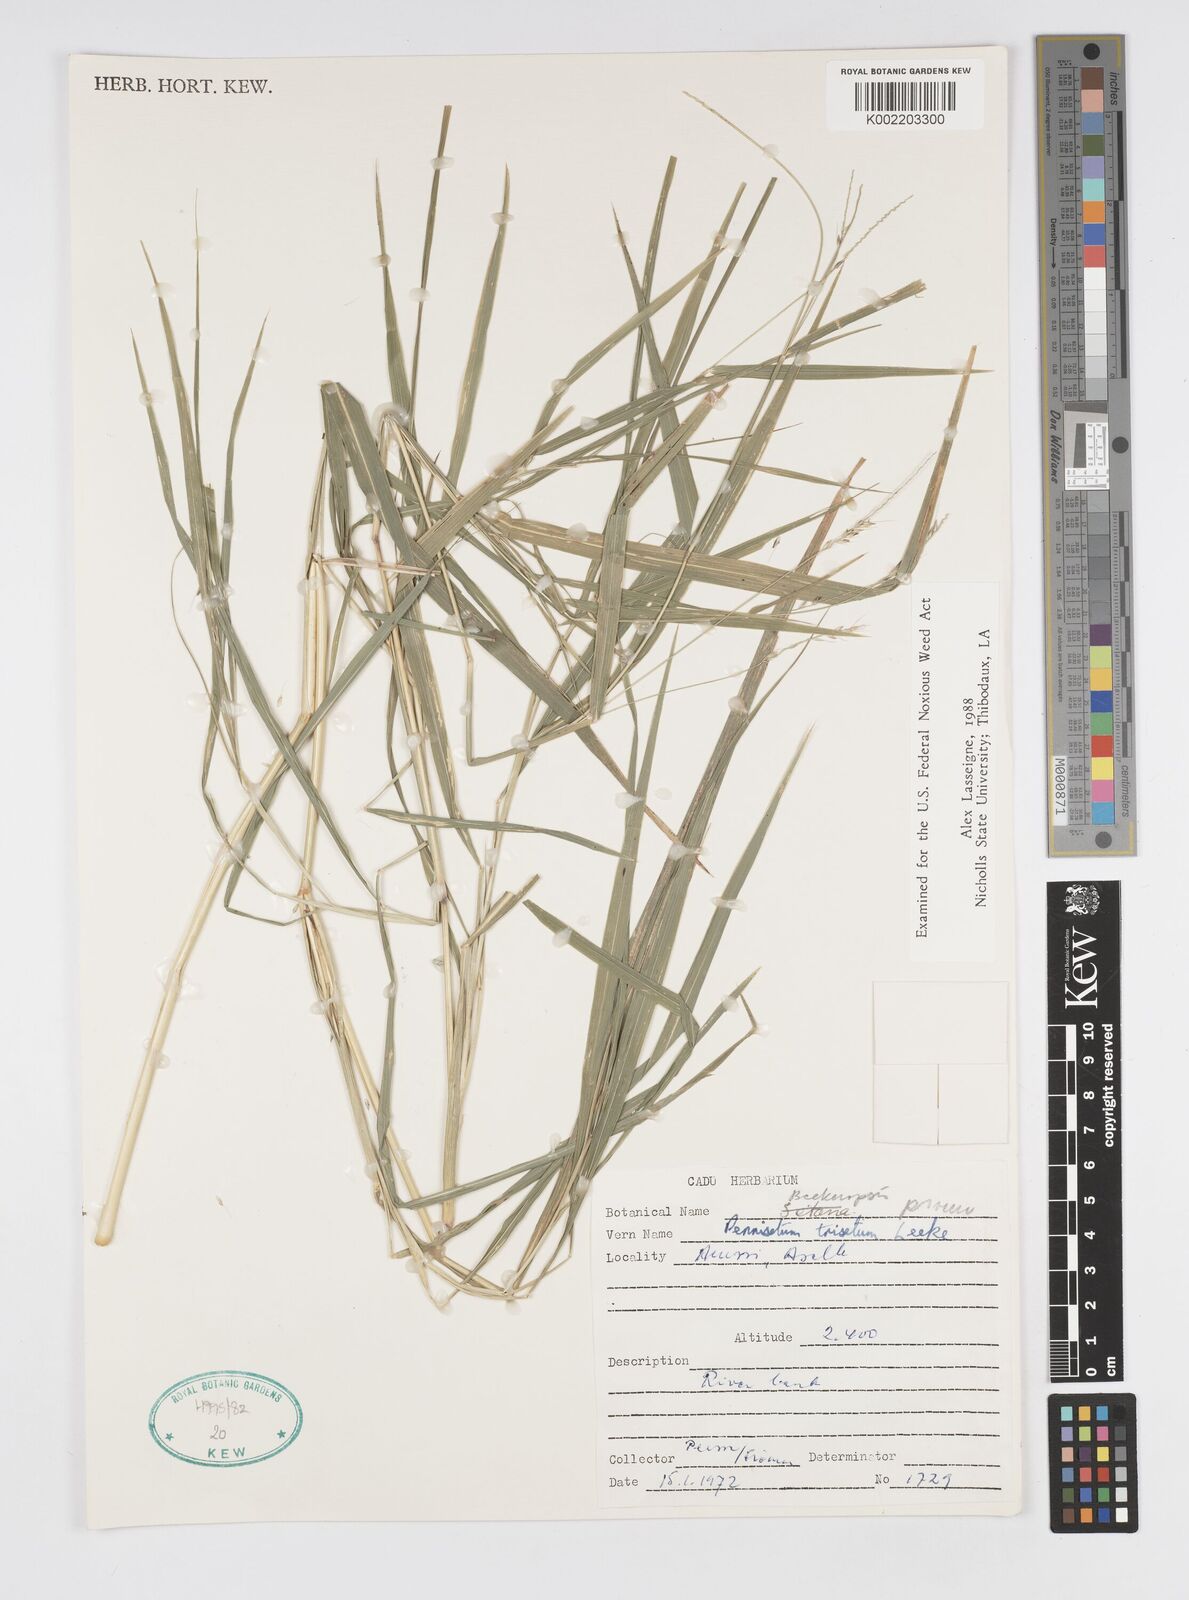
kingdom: Plantae
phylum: Tracheophyta
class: Liliopsida
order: Poales
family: Poaceae
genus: Cenchrus
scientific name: Cenchrus trisetus
